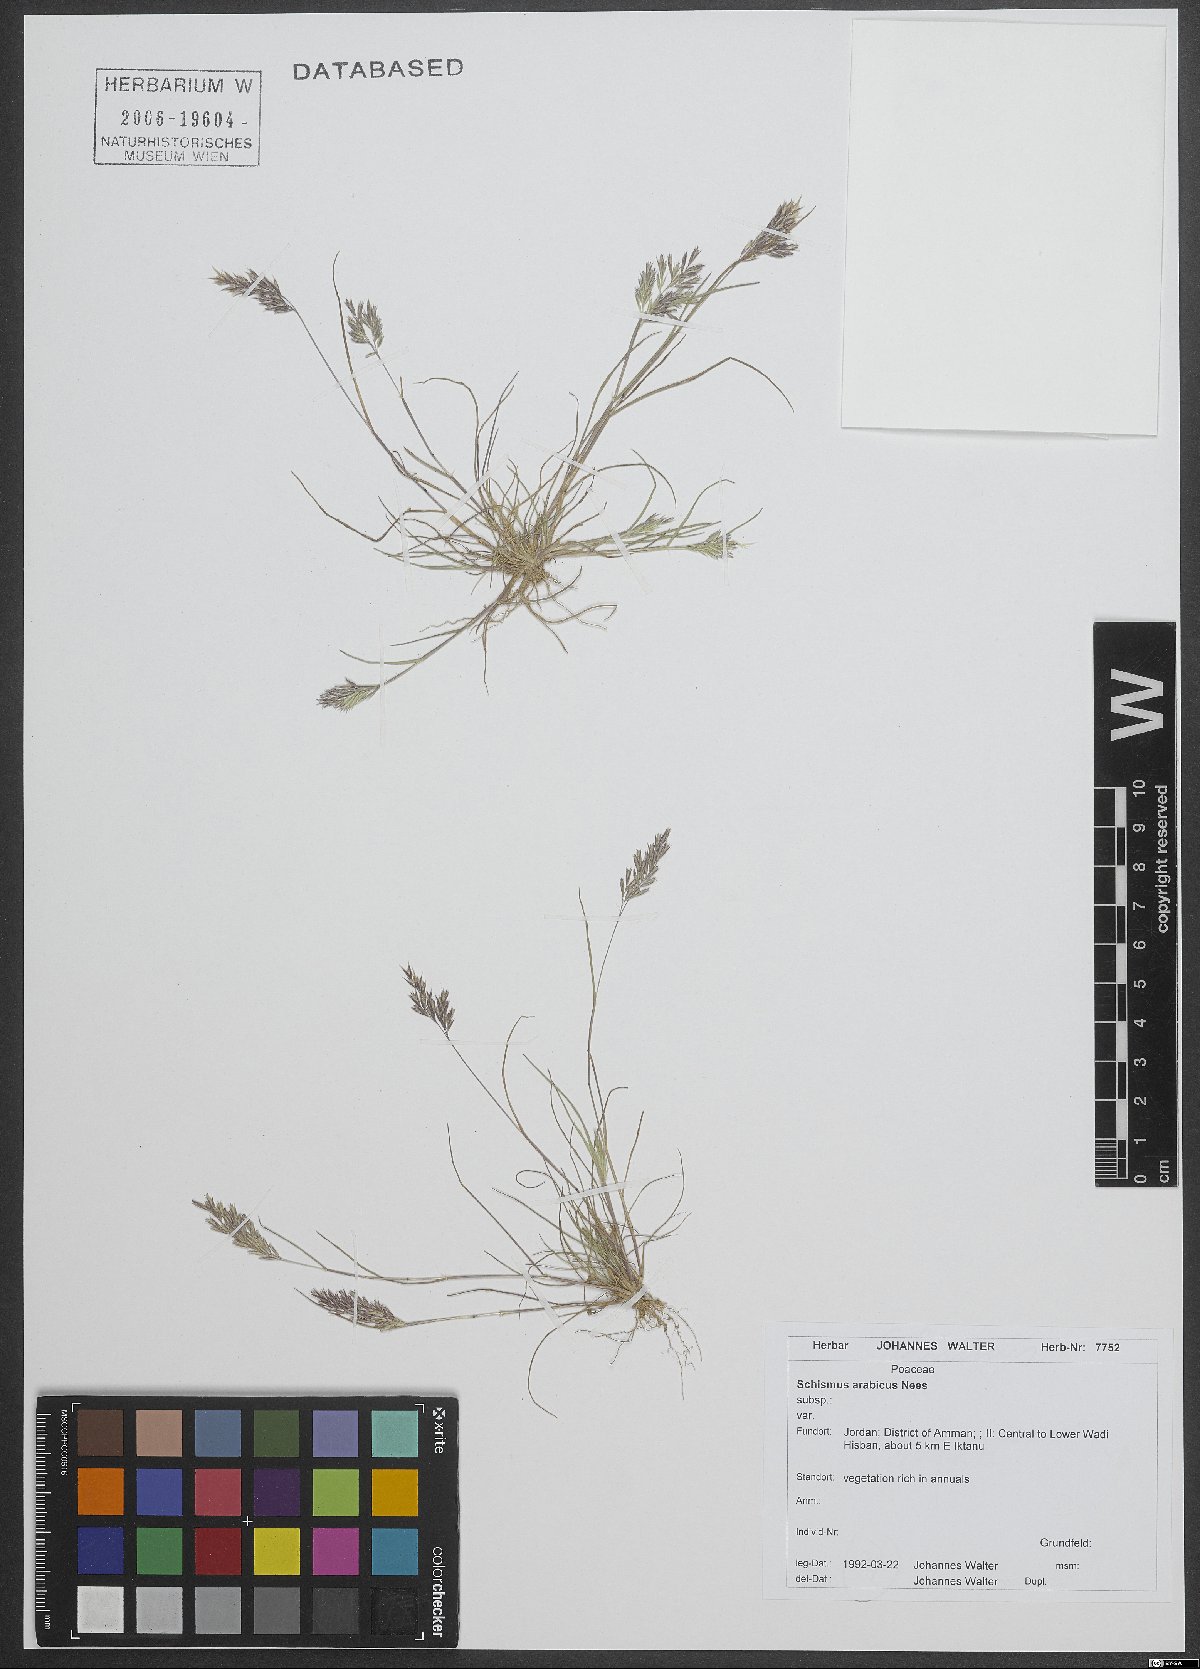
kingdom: Plantae
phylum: Tracheophyta
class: Liliopsida
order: Poales
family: Poaceae
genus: Schismus
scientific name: Schismus arabicus
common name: Arabian schismus
